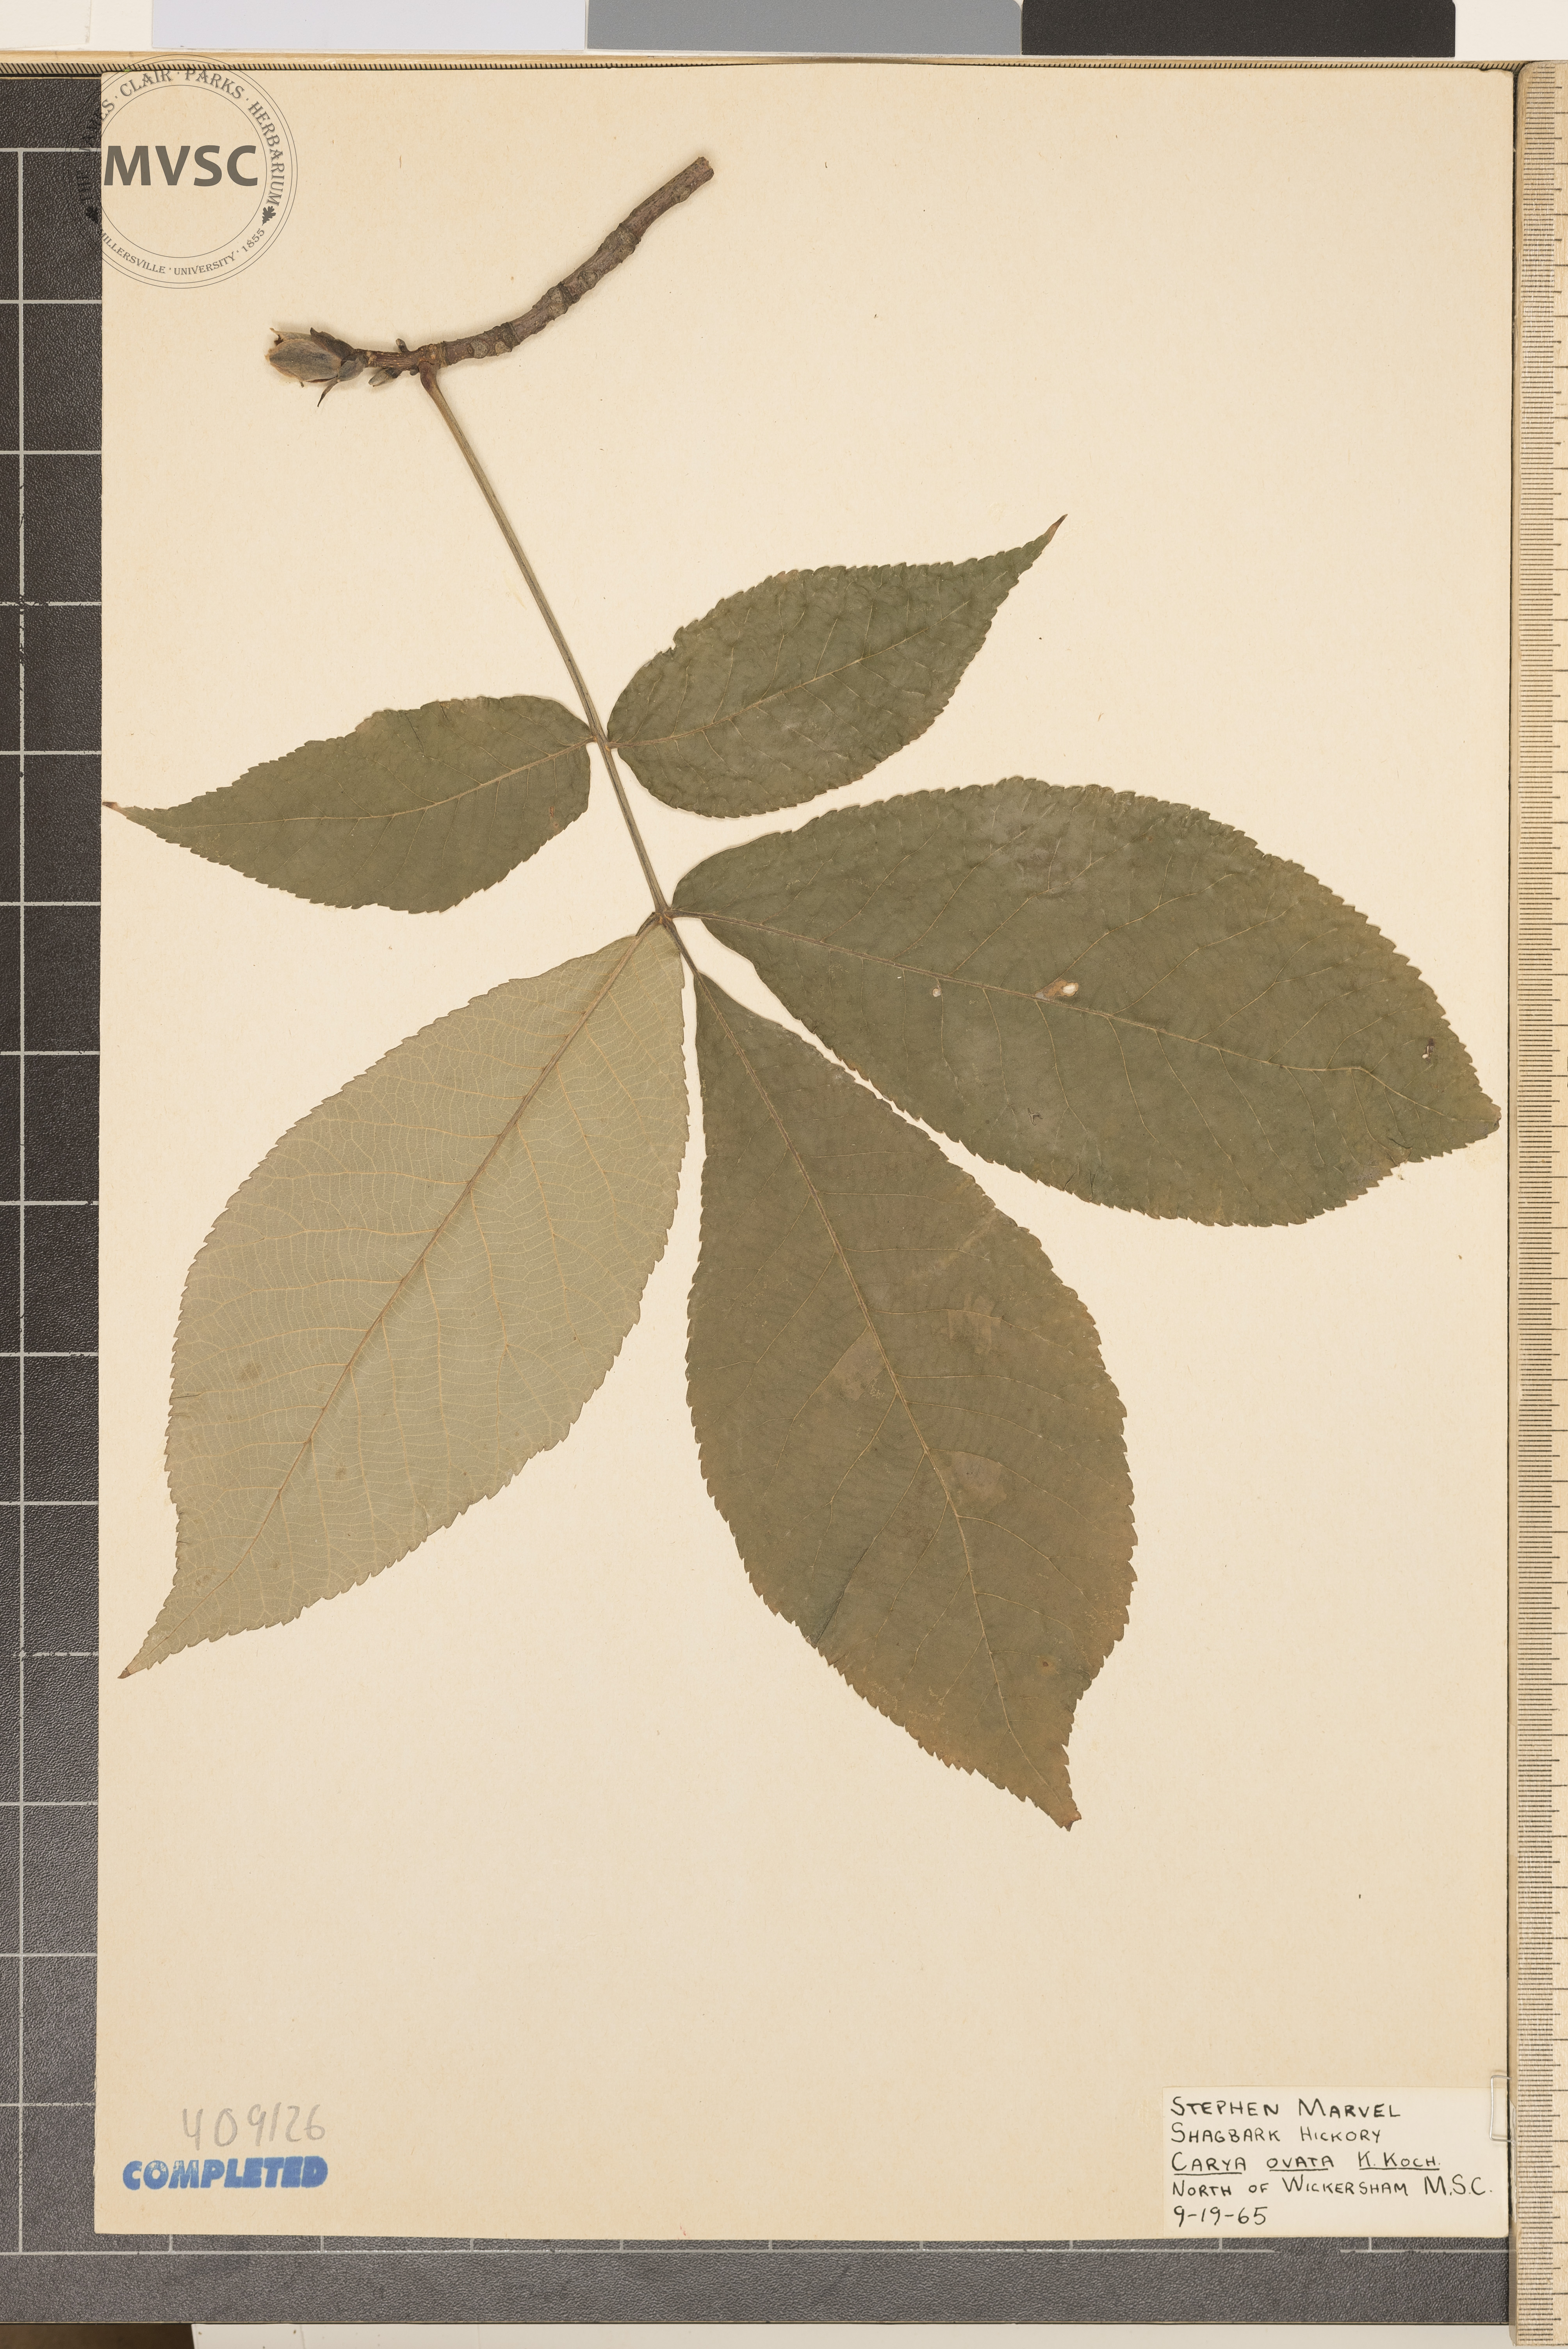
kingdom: Plantae
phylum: Tracheophyta
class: Magnoliopsida
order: Fagales
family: Juglandaceae
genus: Carya
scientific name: Carya ovata
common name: Shagbark hickory
